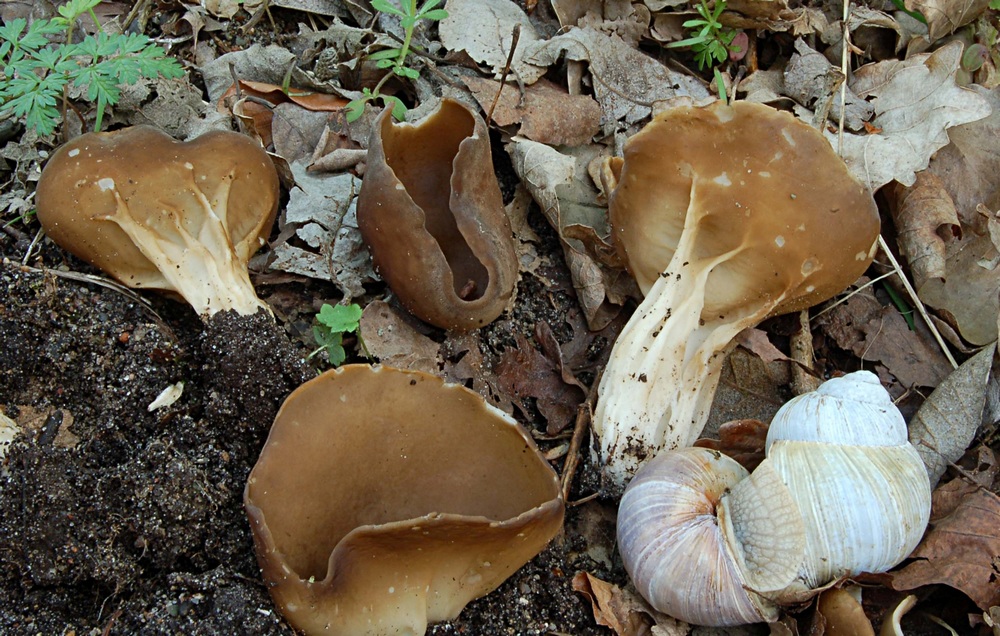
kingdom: Fungi
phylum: Ascomycota
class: Pezizomycetes
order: Pezizales
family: Helvellaceae
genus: Helvella
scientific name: Helvella acetabulum
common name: pokal-foldhat
